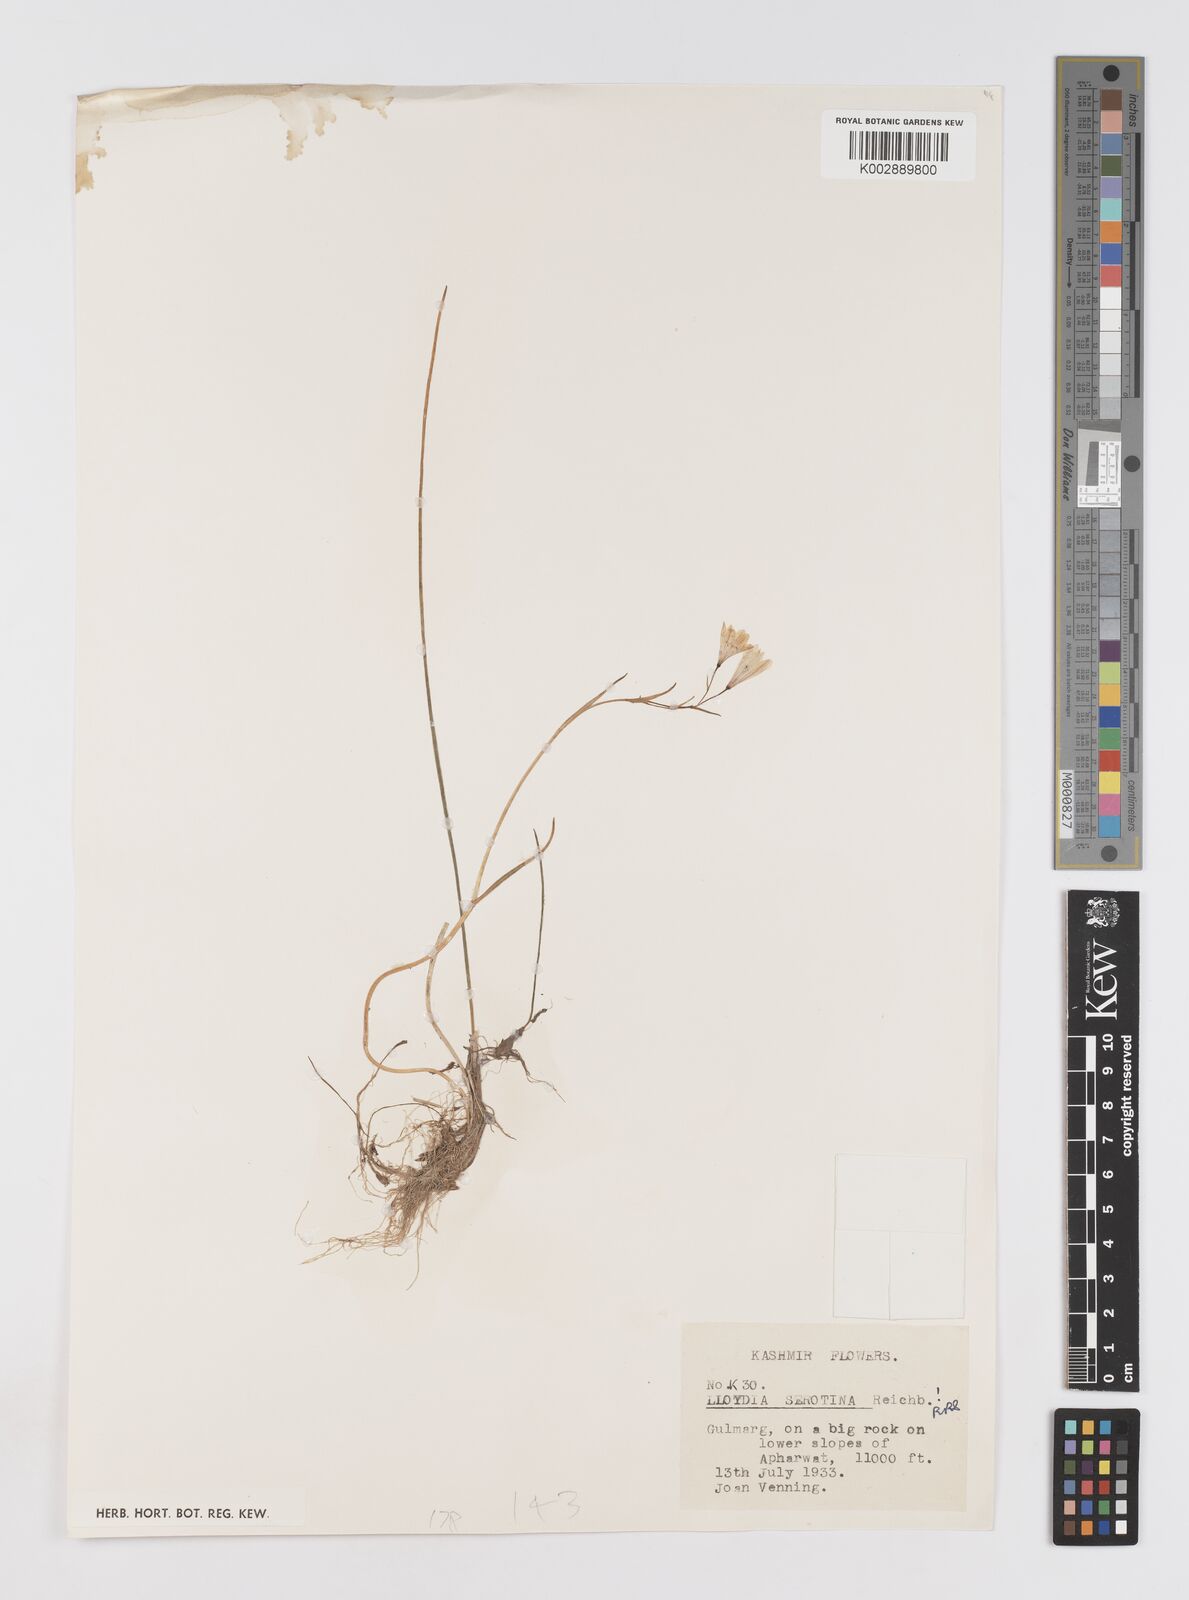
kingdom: Plantae
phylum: Tracheophyta
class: Liliopsida
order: Liliales
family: Liliaceae
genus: Gagea
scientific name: Gagea serotina
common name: Snowdon lily
